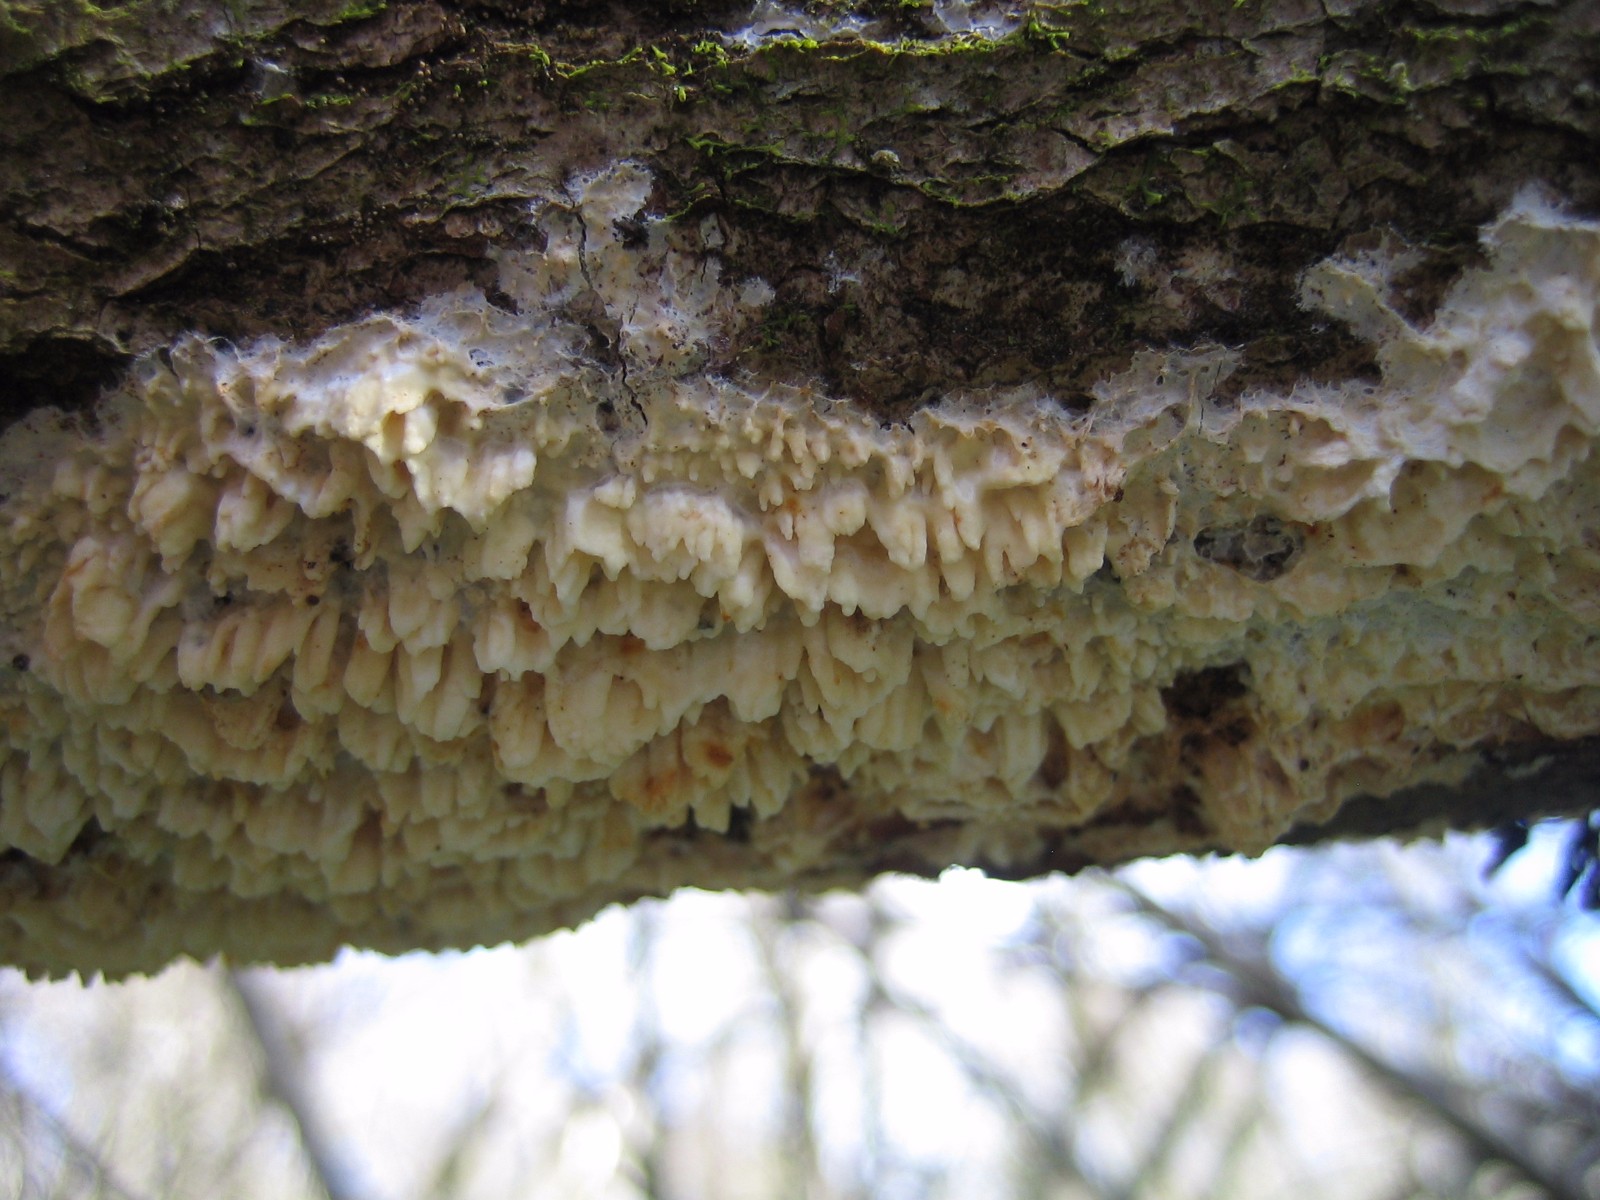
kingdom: Fungi
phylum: Basidiomycota
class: Agaricomycetes
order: Hymenochaetales
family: Schizoporaceae
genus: Xylodon
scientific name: Xylodon radula
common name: grovtandet kalkskind
